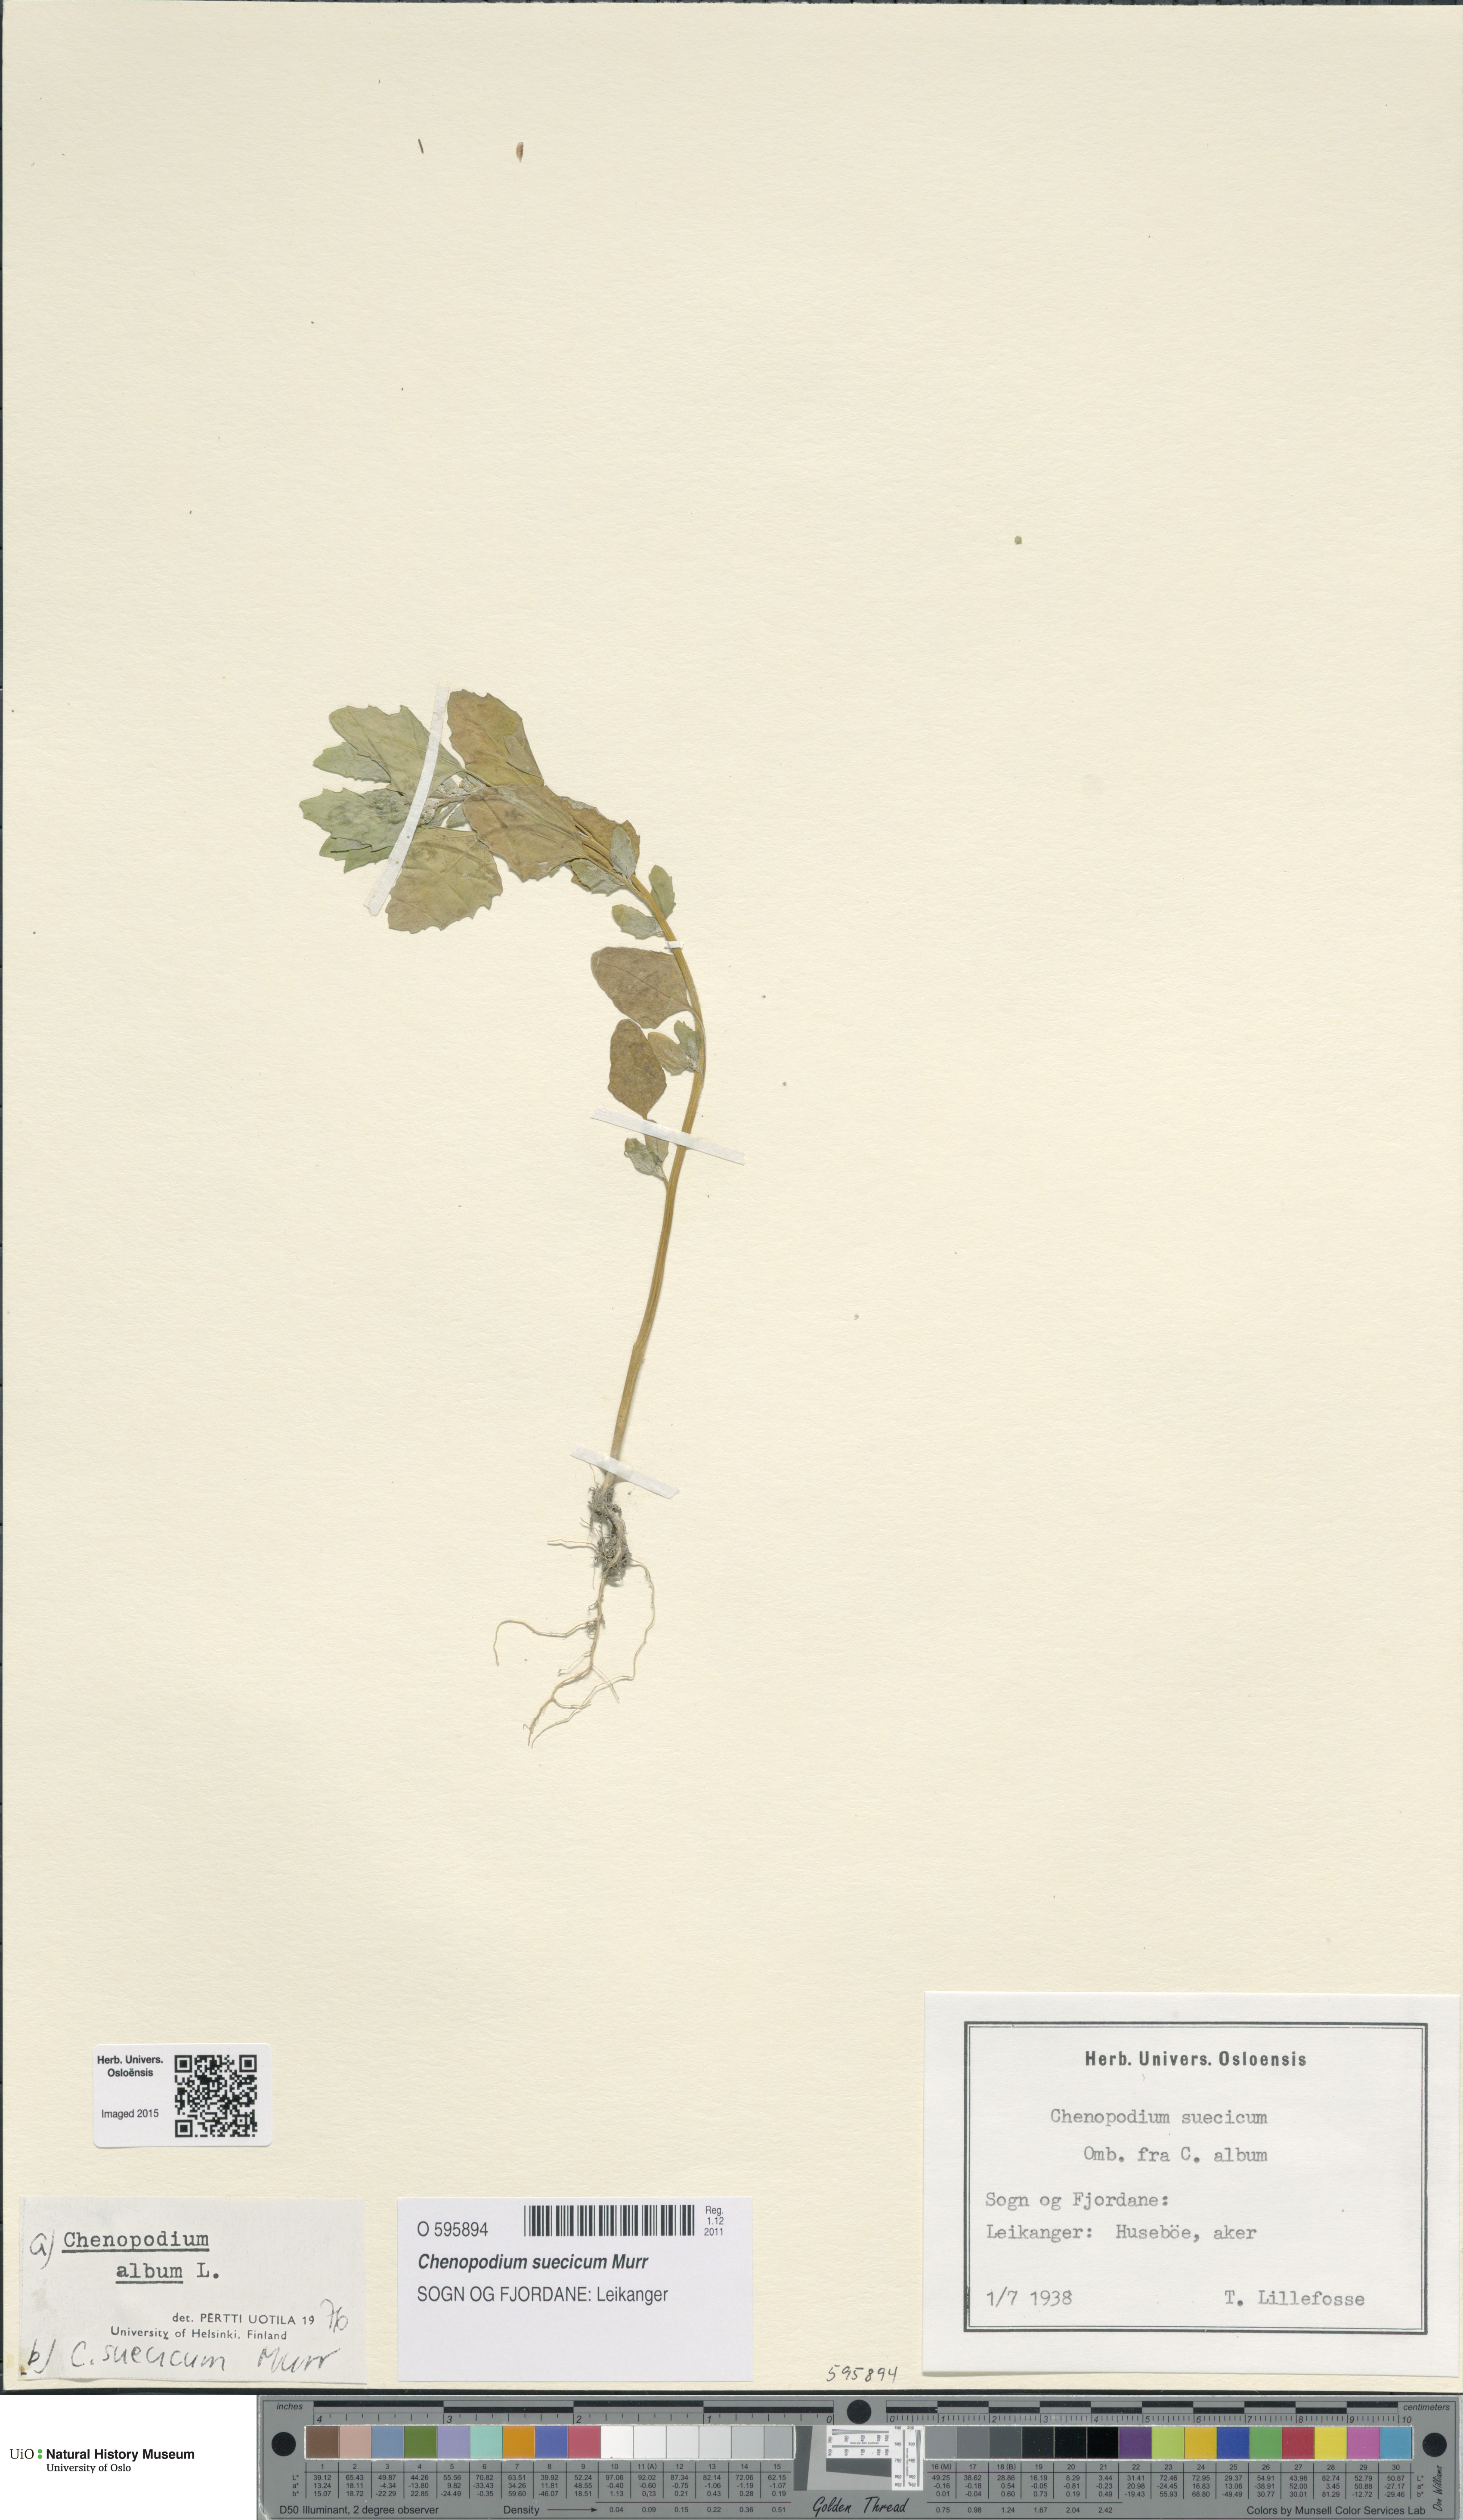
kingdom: Plantae
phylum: Tracheophyta
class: Magnoliopsida
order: Caryophyllales
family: Amaranthaceae
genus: Chenopodium
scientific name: Chenopodium suecicum
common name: Swedish goosefoot
